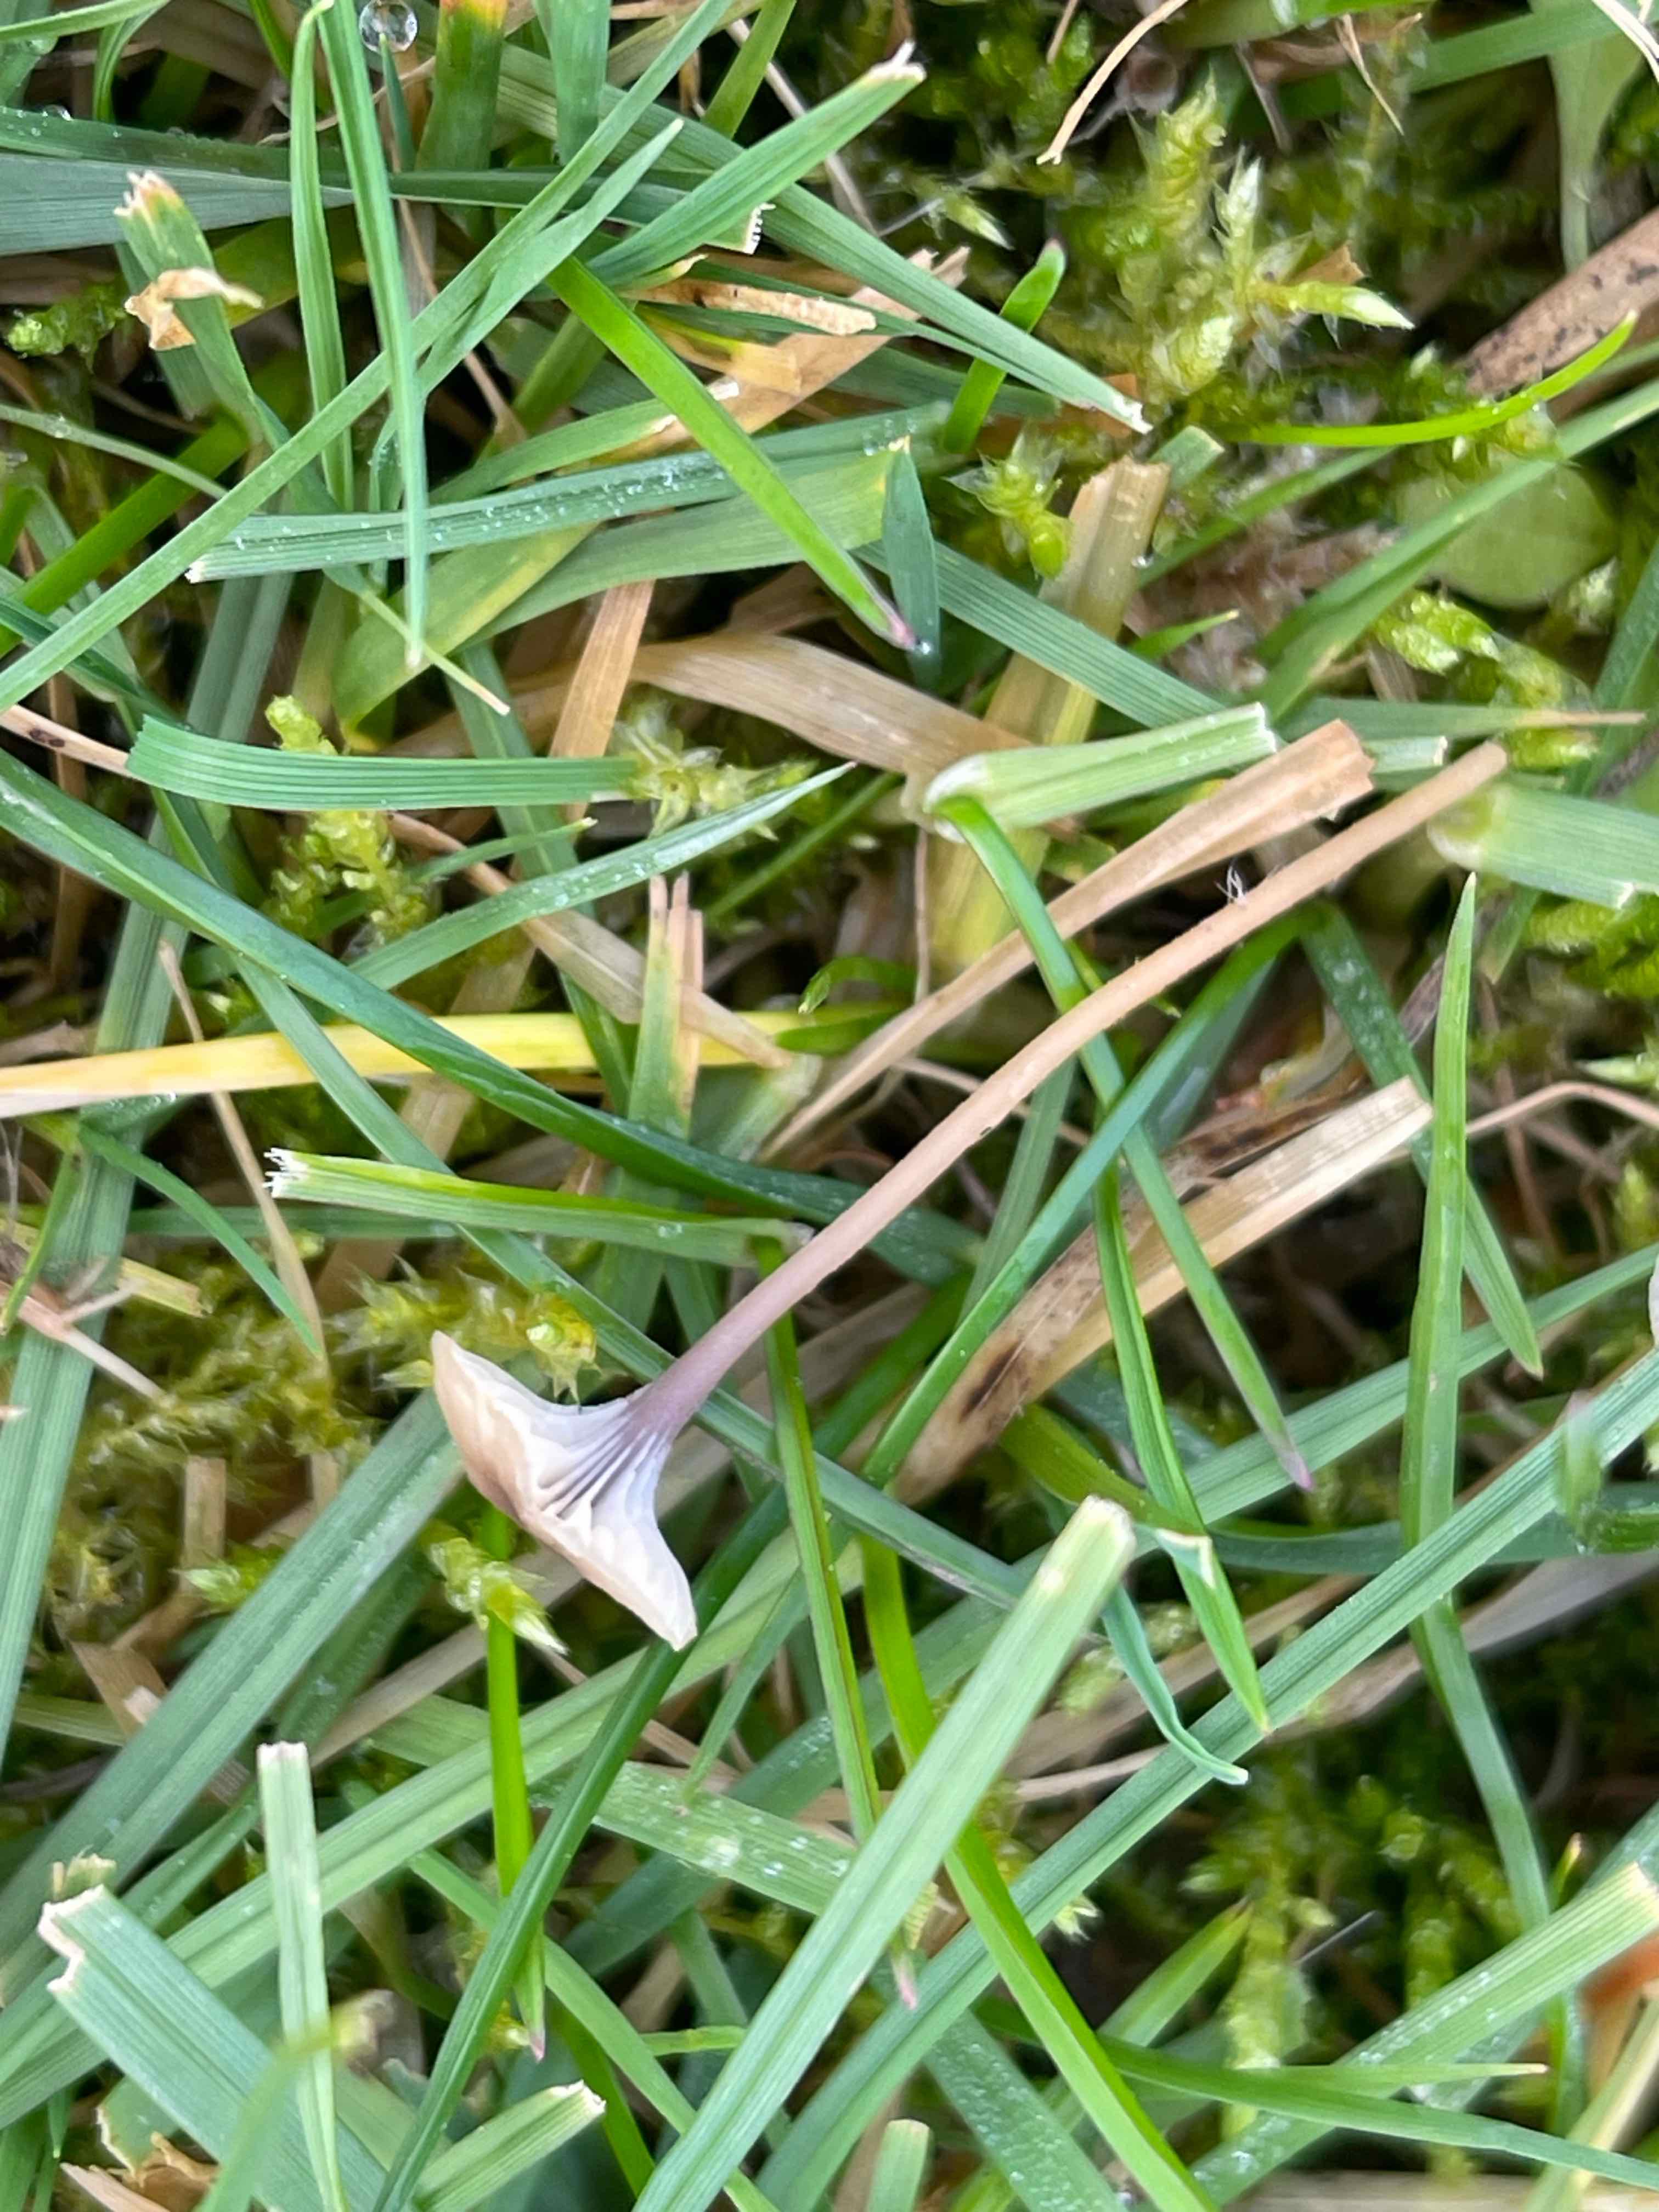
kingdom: Fungi
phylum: Basidiomycota
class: Agaricomycetes
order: Hymenochaetales
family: Rickenellaceae
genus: Rickenella
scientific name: Rickenella swartzii
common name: finstokket mosnavlehat
